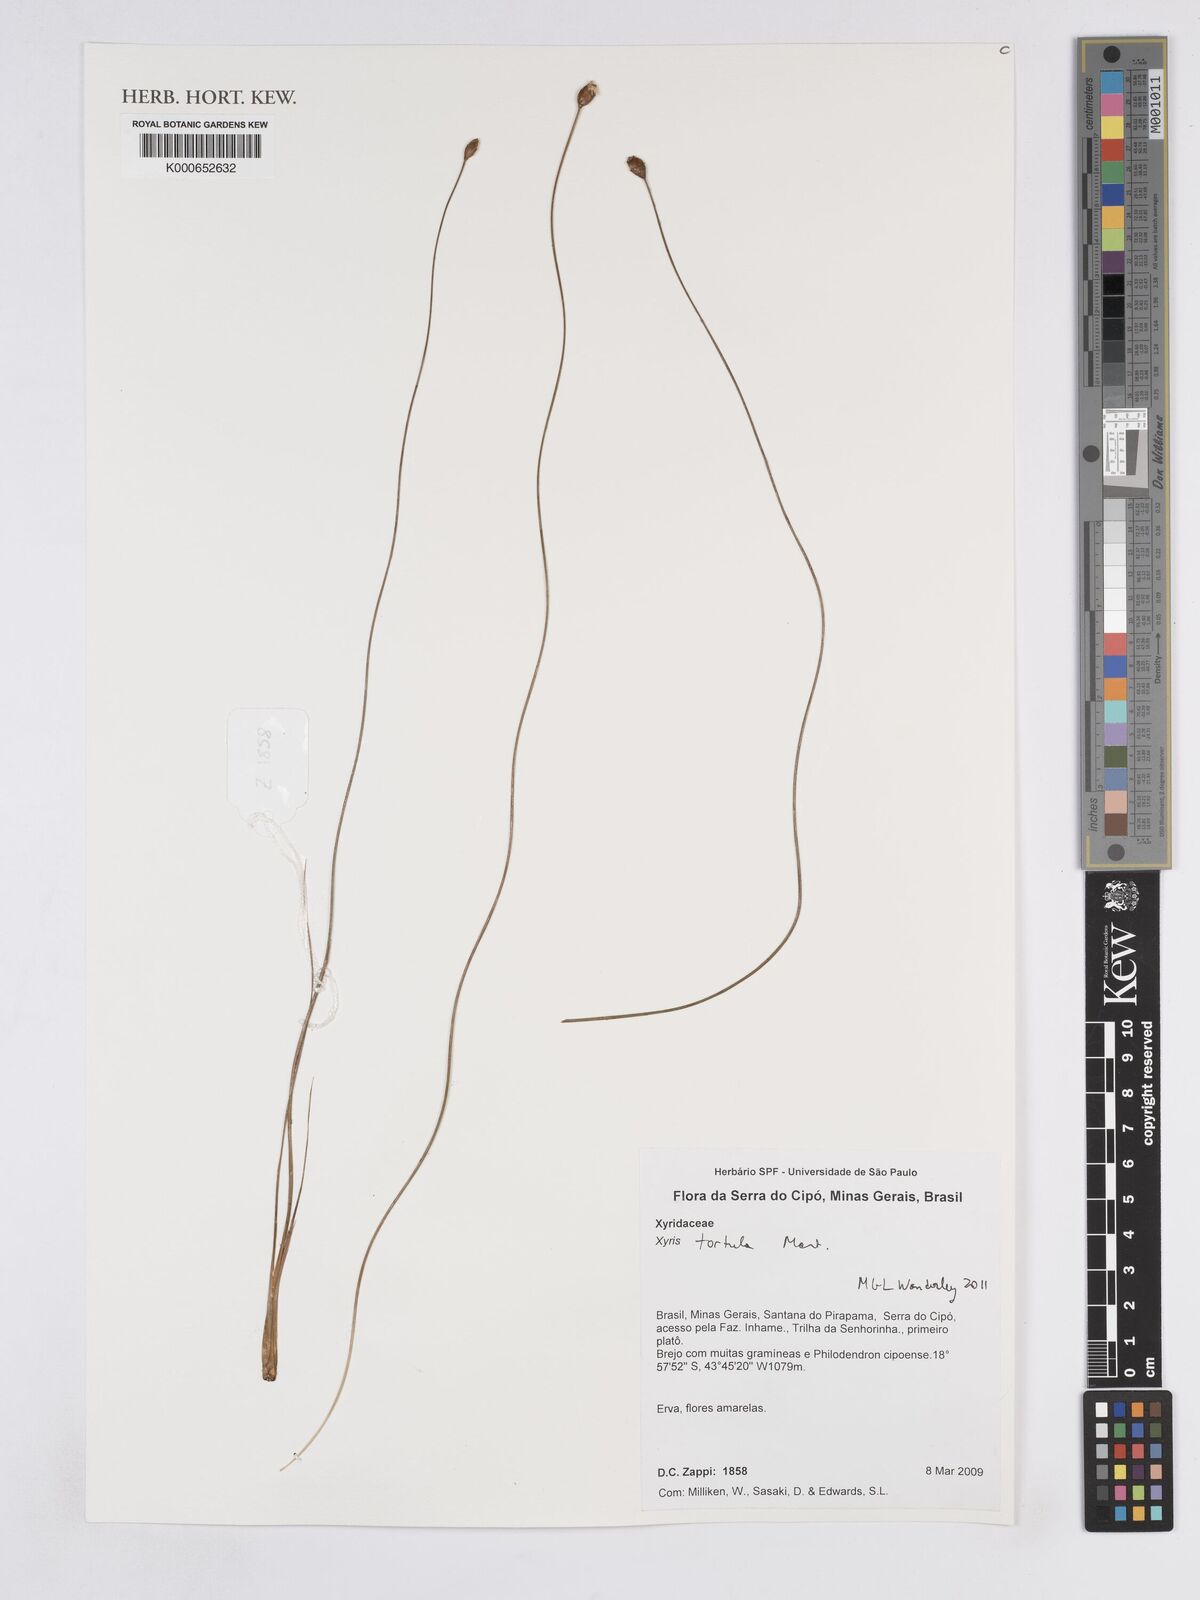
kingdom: Plantae
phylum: Tracheophyta
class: Liliopsida
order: Poales
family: Xyridaceae
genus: Xyris
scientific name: Xyris tortula
